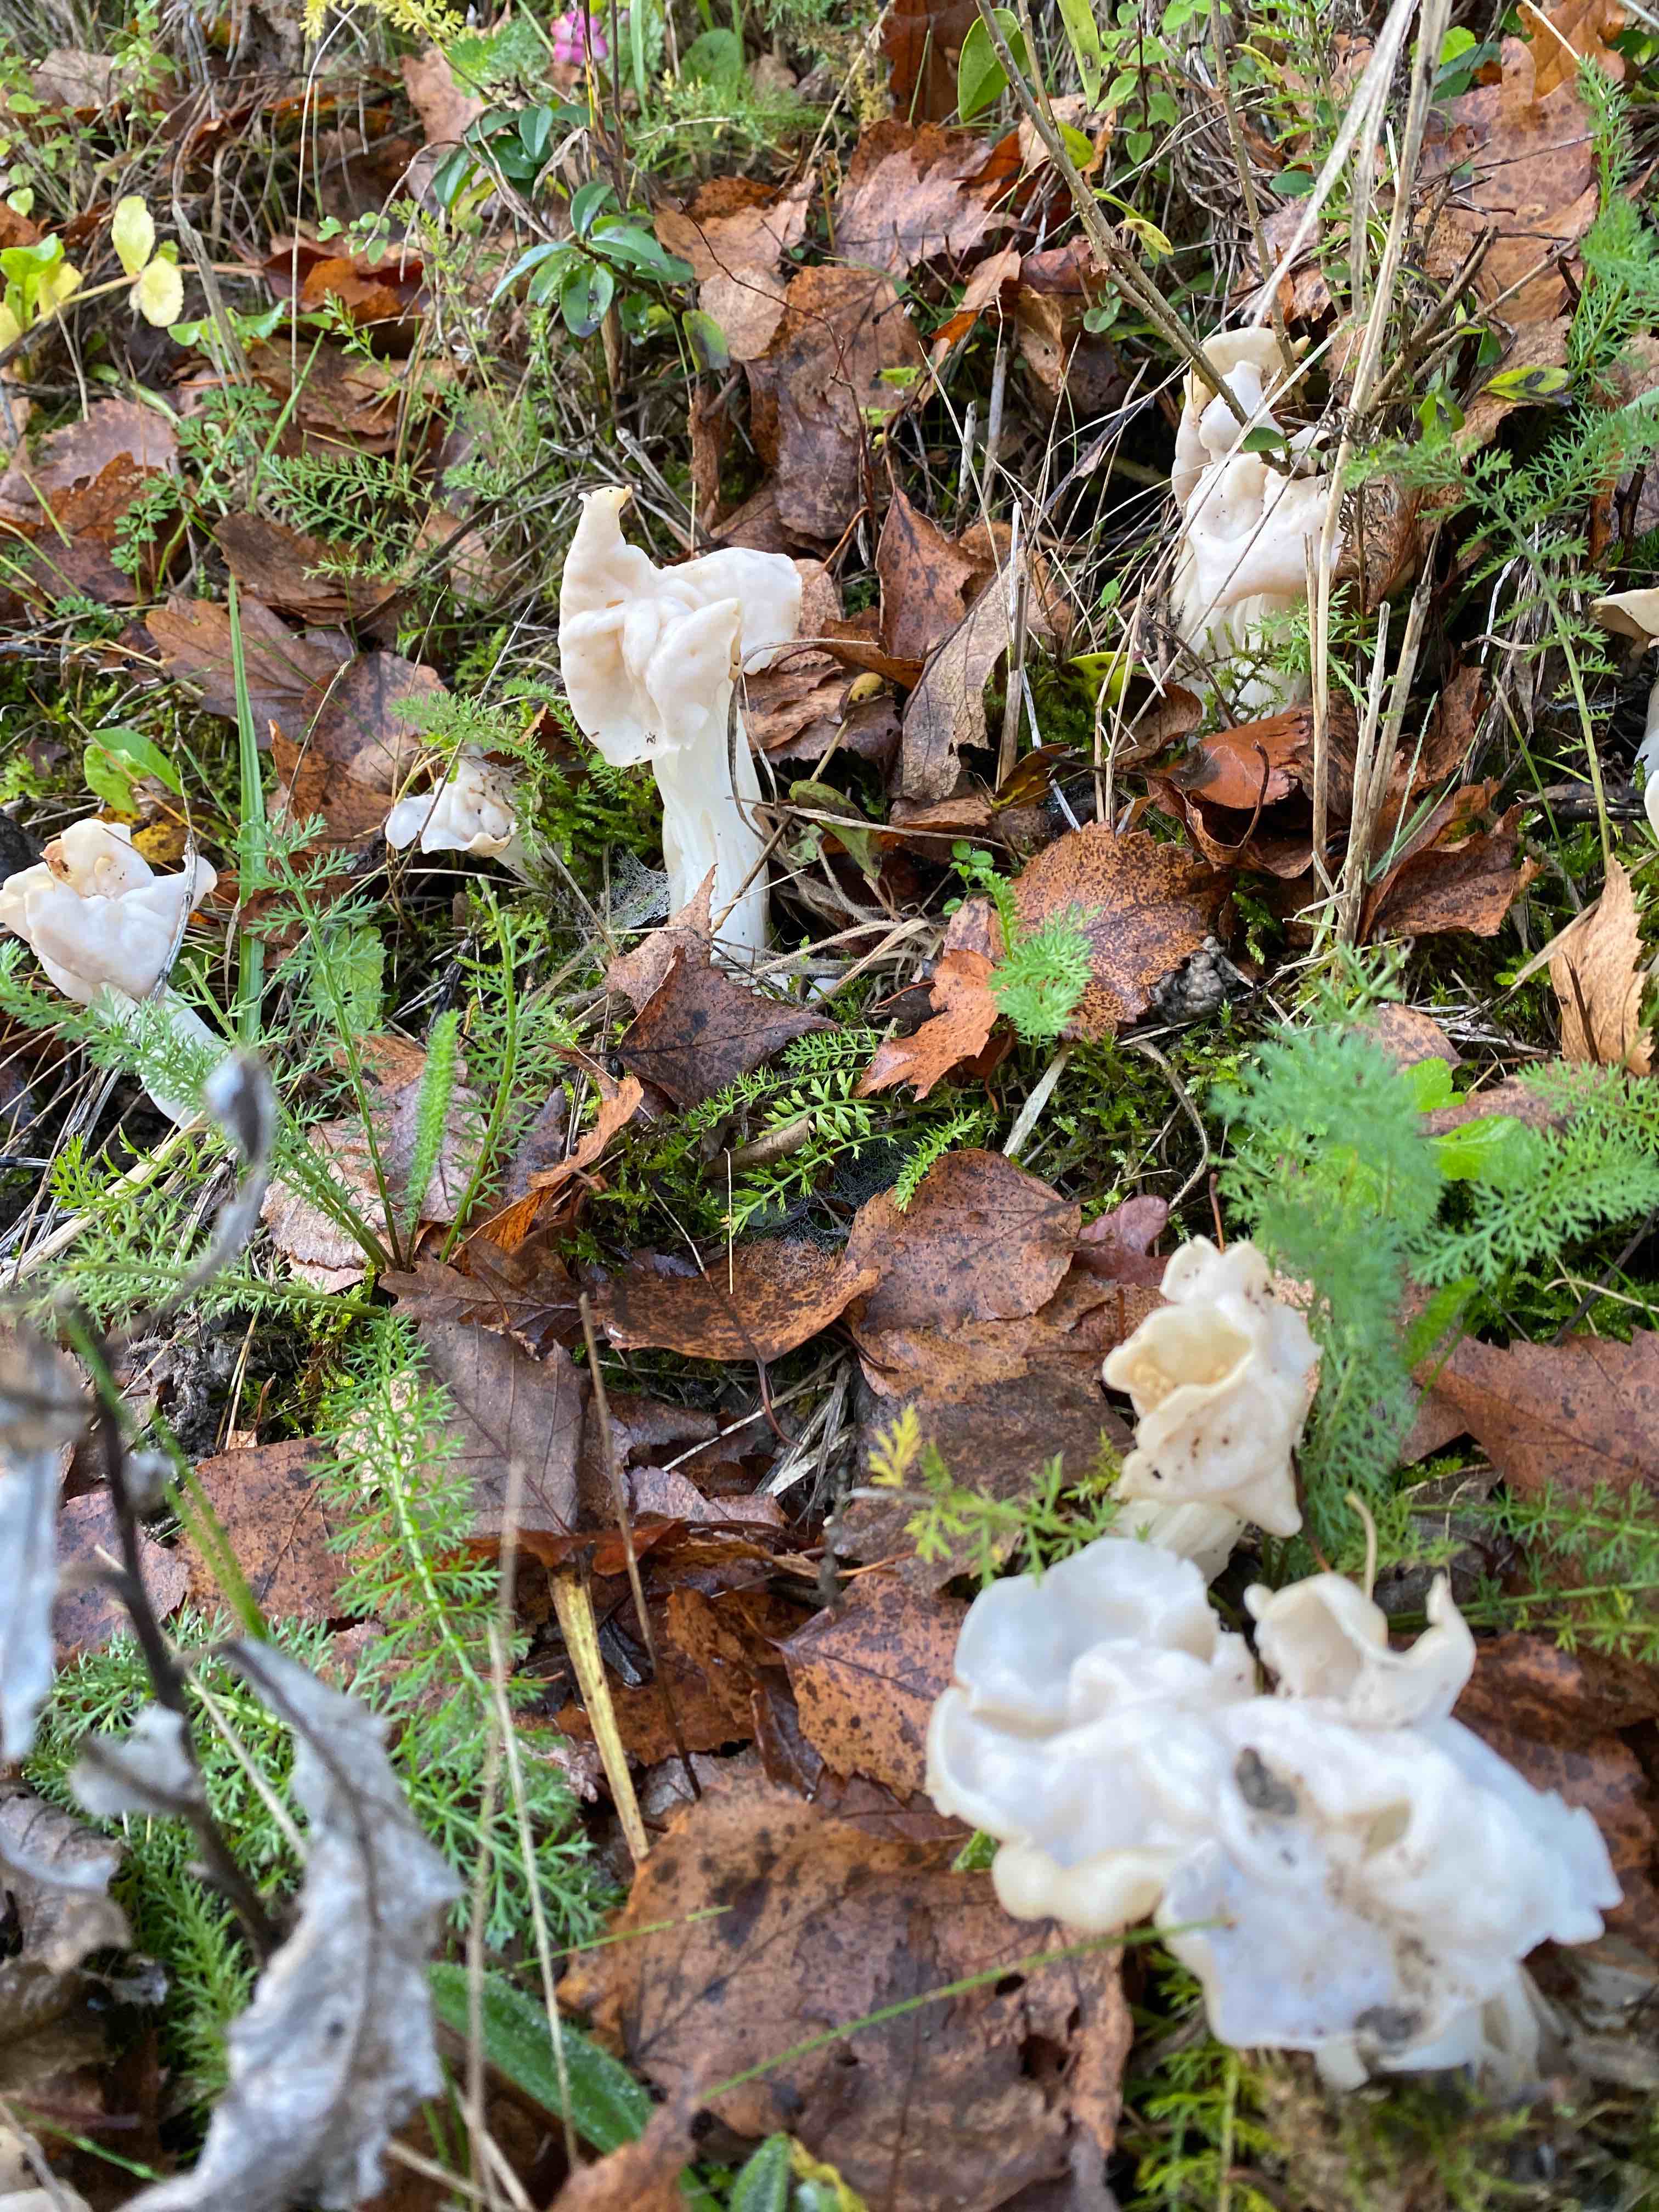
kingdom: Fungi
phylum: Ascomycota
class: Pezizomycetes
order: Pezizales
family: Helvellaceae
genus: Helvella
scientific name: Helvella crispa
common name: kruset foldhat
